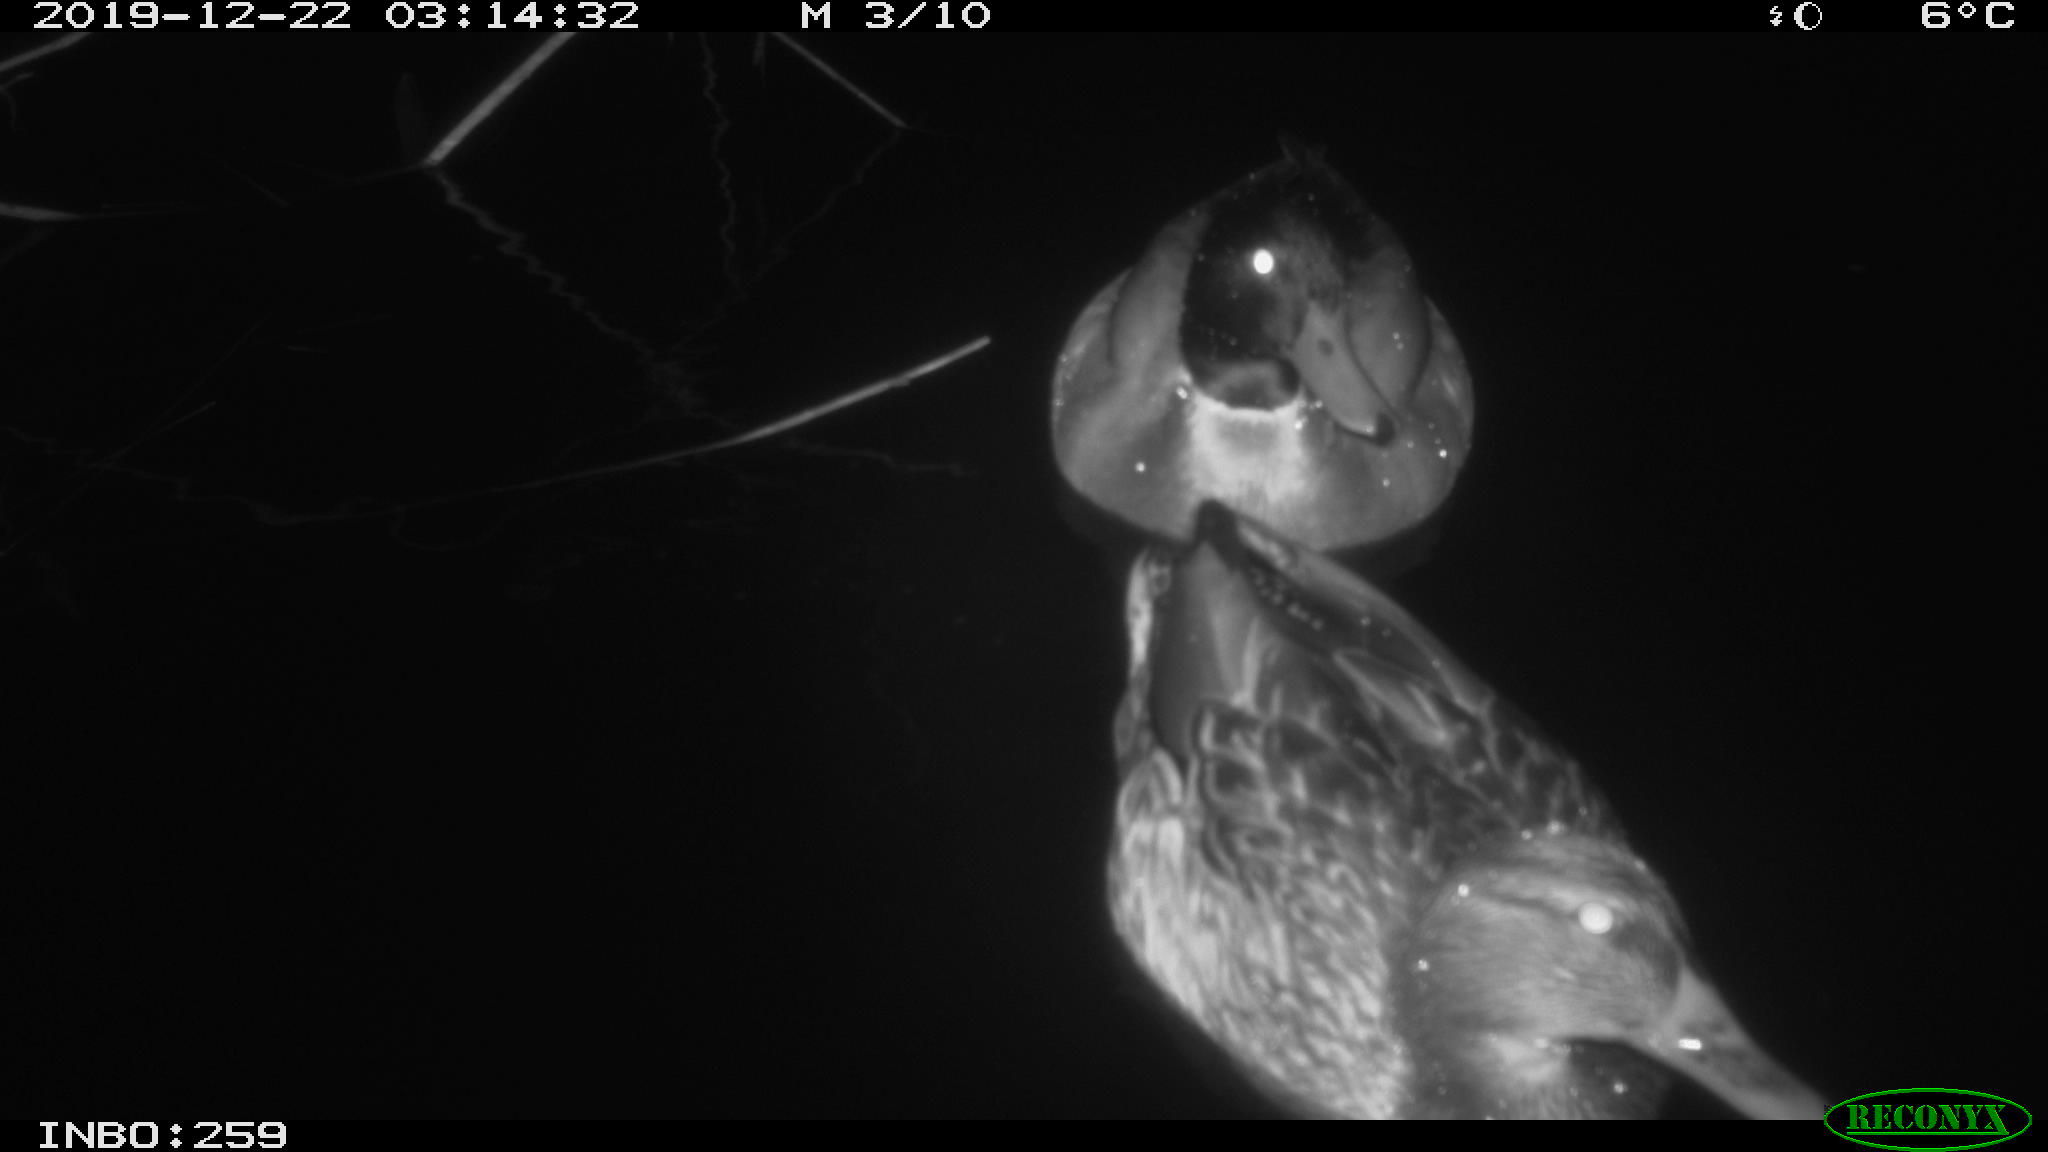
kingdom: Animalia
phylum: Chordata
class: Aves
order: Anseriformes
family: Anatidae
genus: Anas
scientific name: Anas platyrhynchos
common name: Mallard
